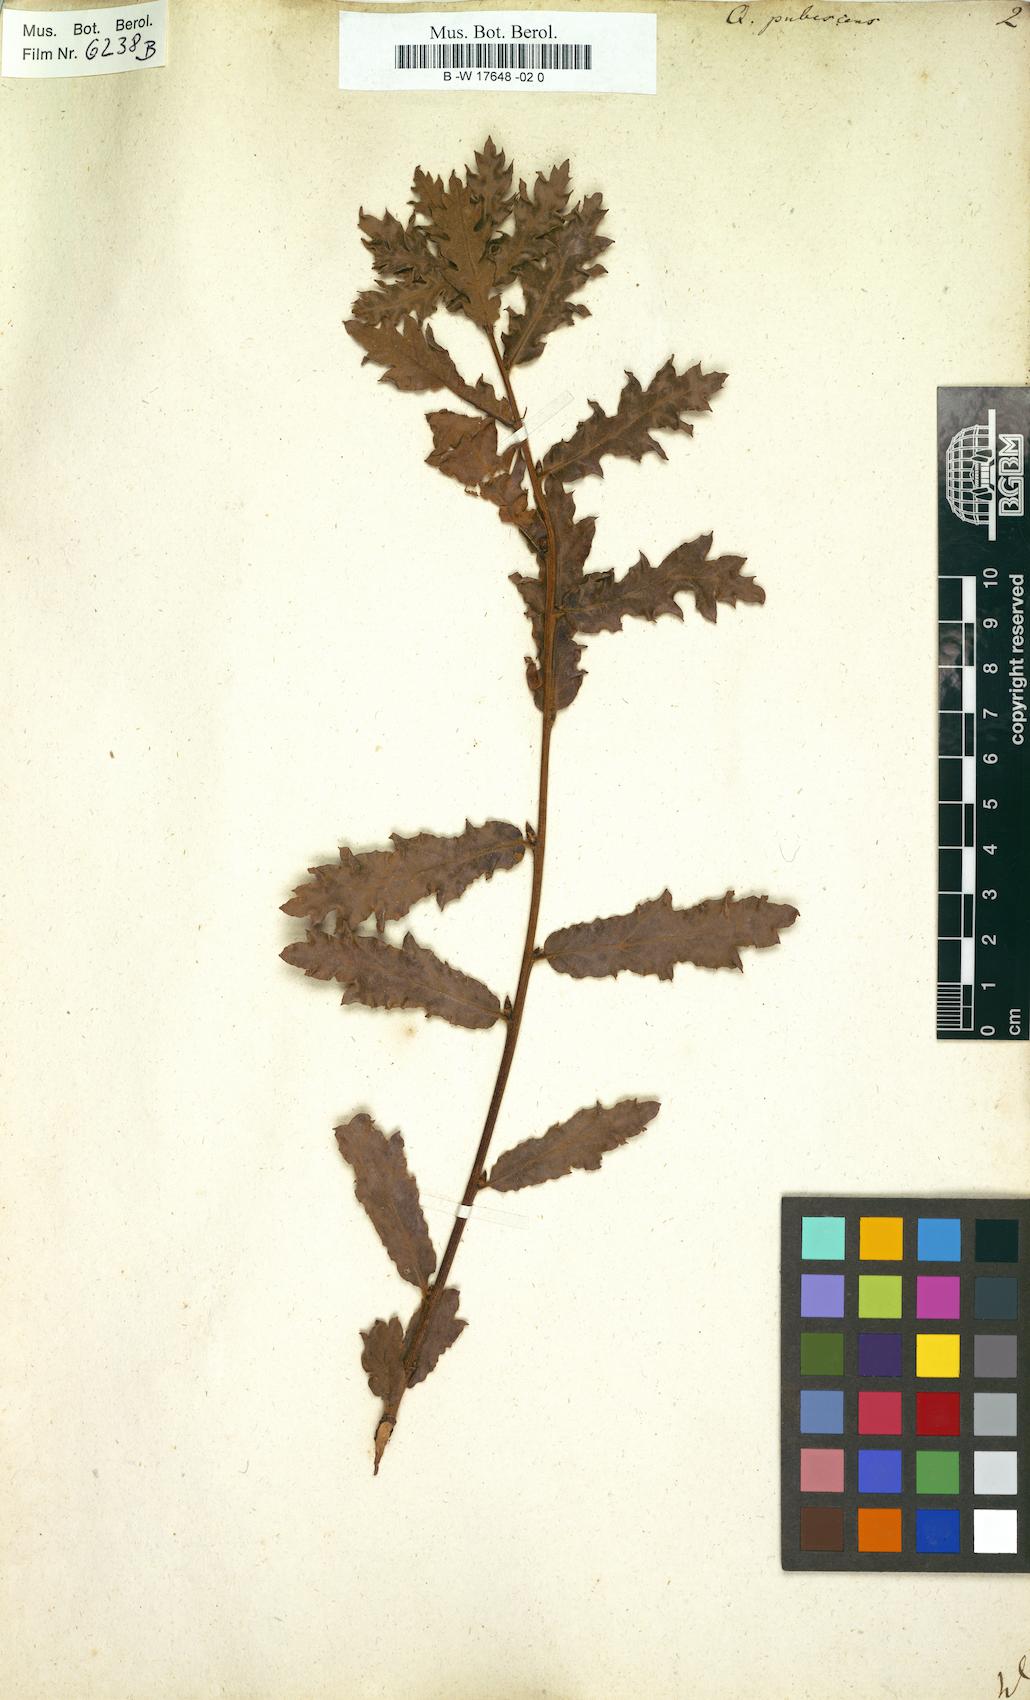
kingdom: Plantae
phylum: Tracheophyta
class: Magnoliopsida
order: Fagales
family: Fagaceae
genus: Quercus
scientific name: Quercus pubescens
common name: Downy oak
